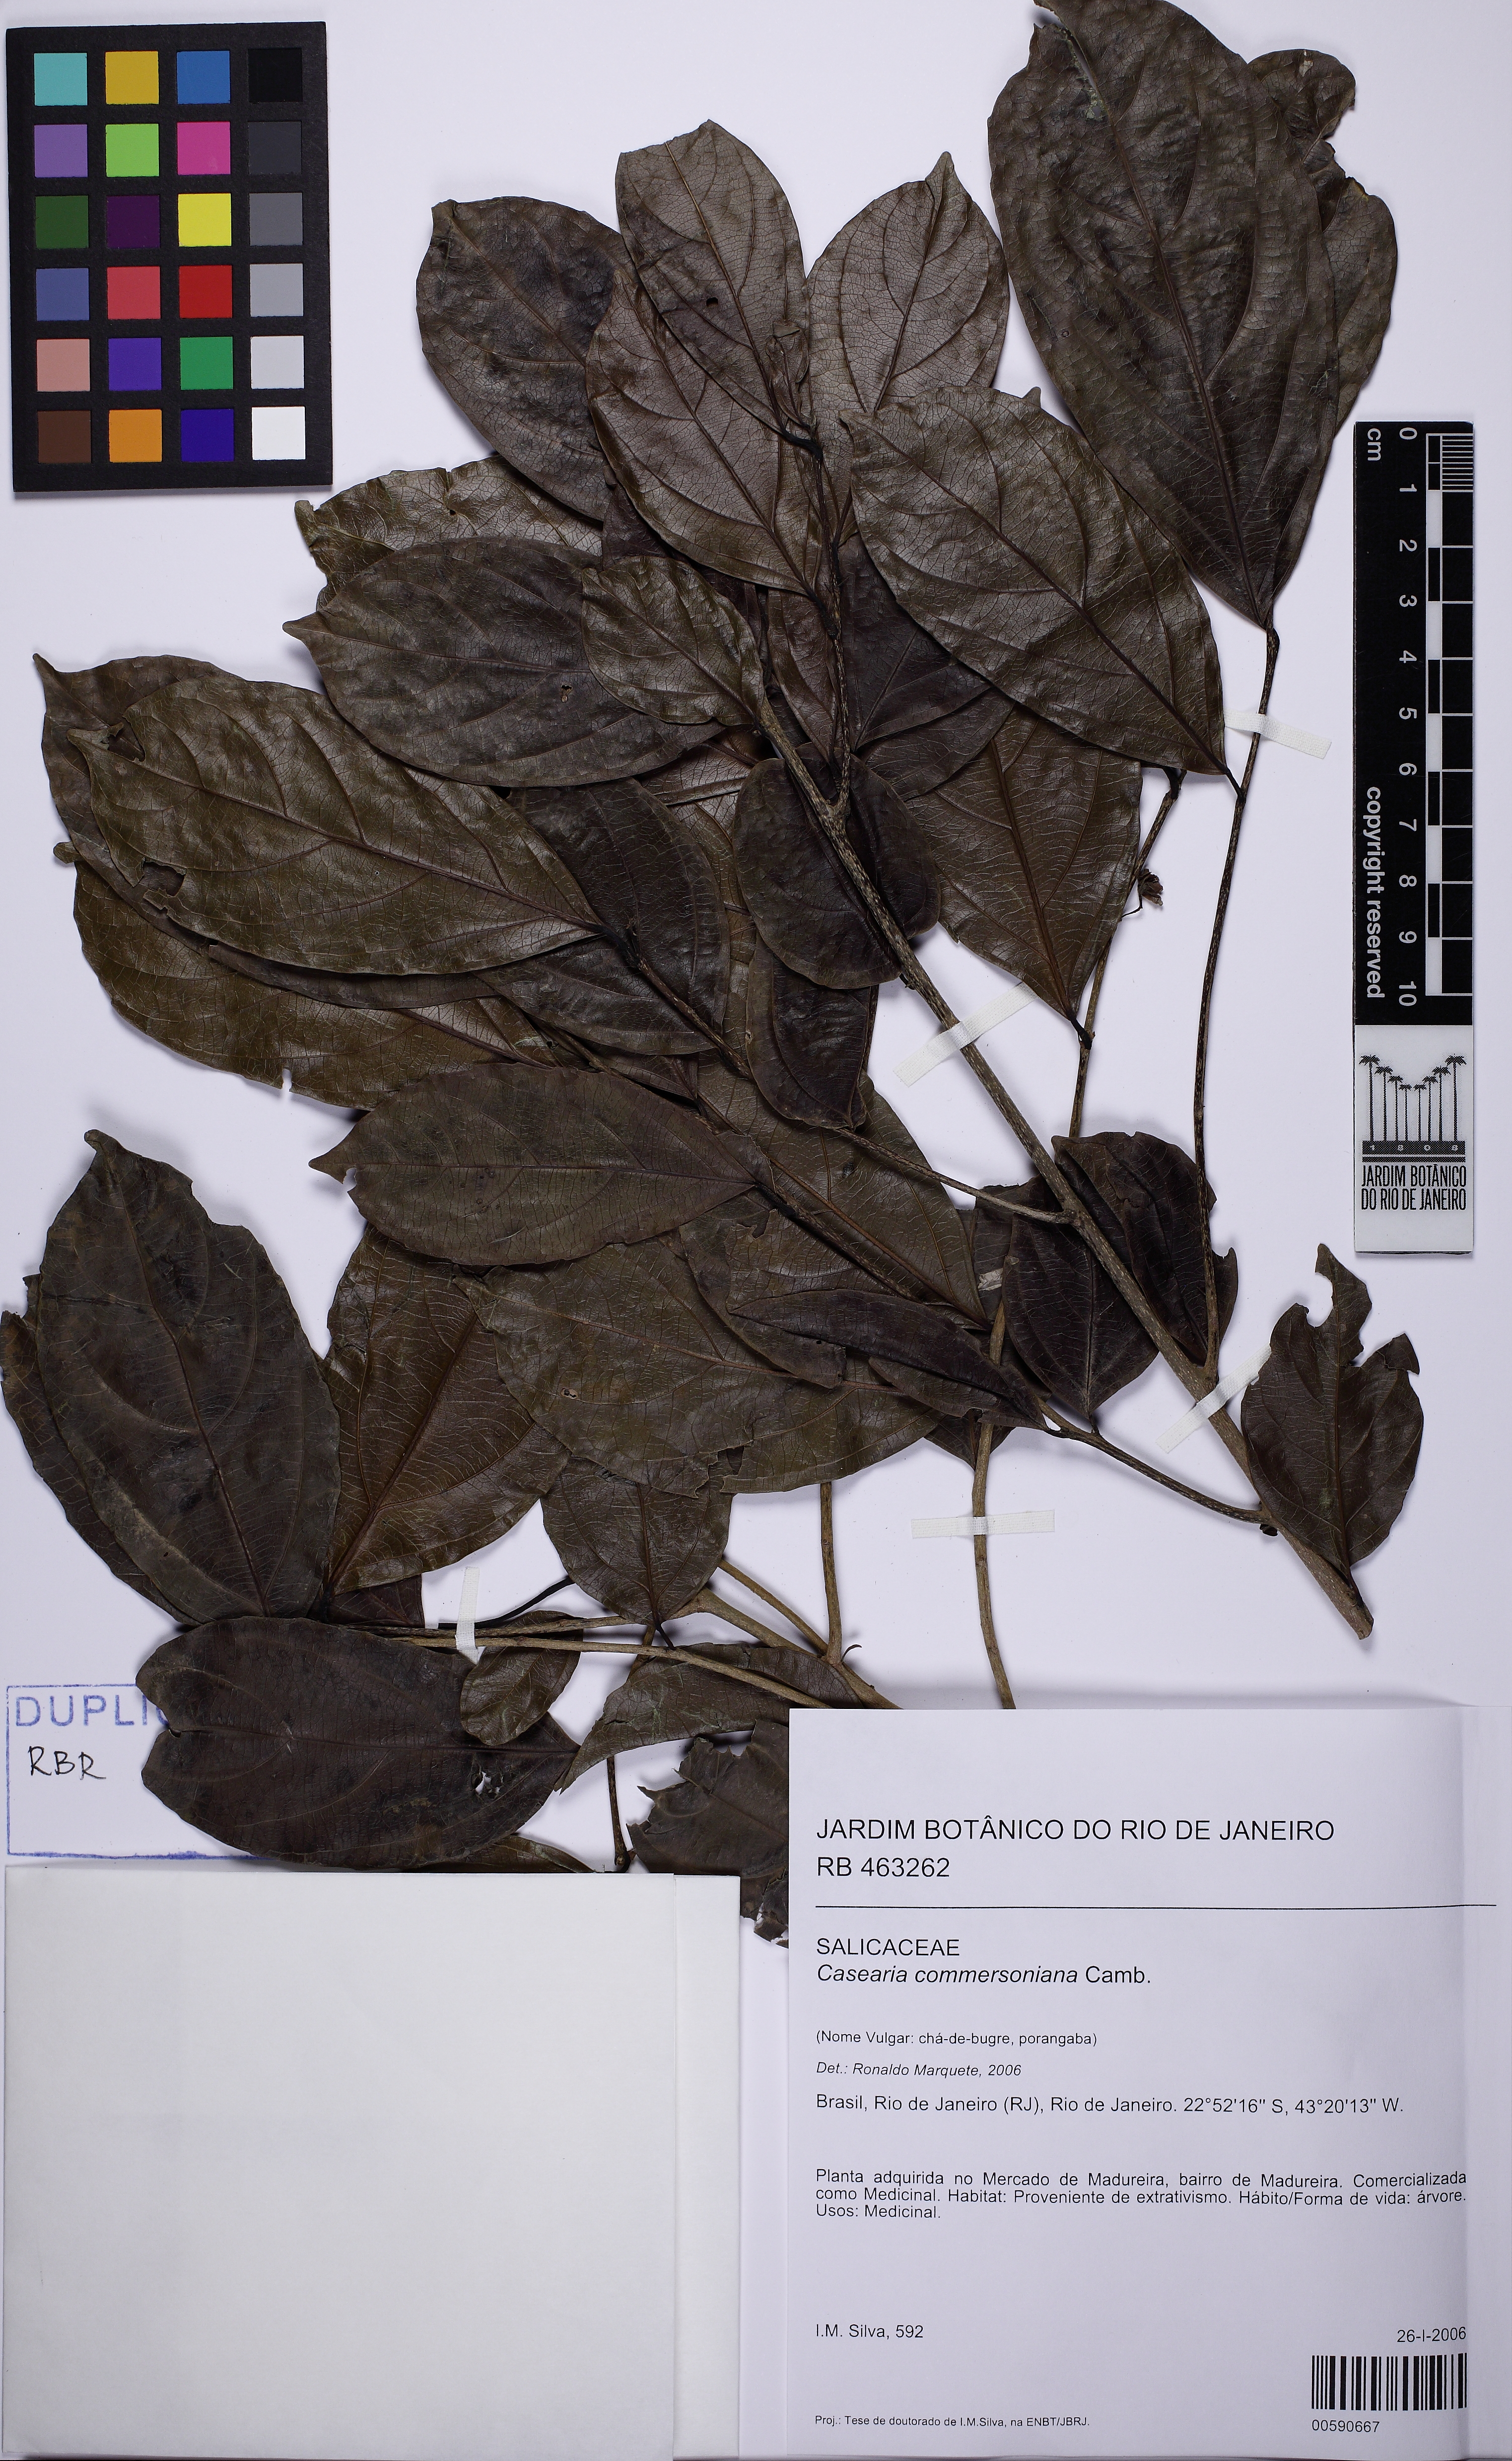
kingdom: Plantae
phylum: Tracheophyta
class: Magnoliopsida
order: Malpighiales
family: Salicaceae
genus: Piparea
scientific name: Piparea dentata
